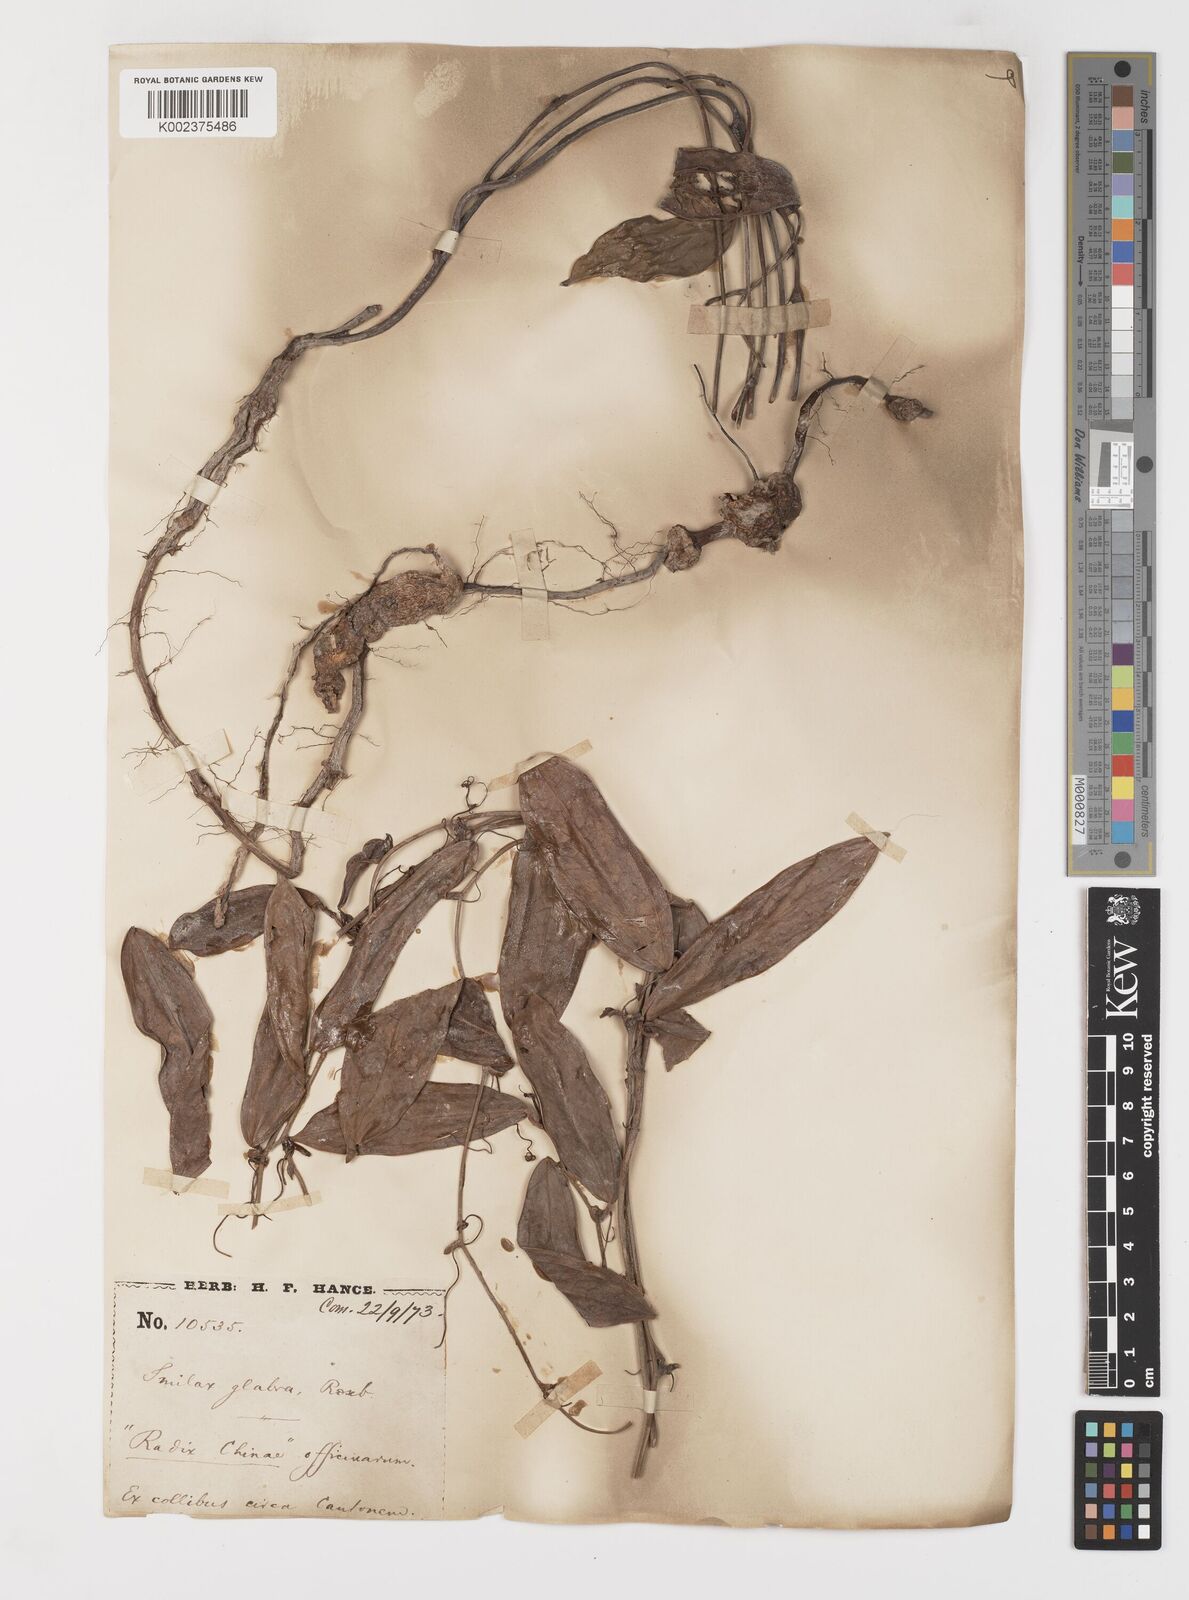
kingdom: Plantae
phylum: Tracheophyta
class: Liliopsida
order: Liliales
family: Smilacaceae
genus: Smilax
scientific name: Smilax glabra
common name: Chinese smilax
